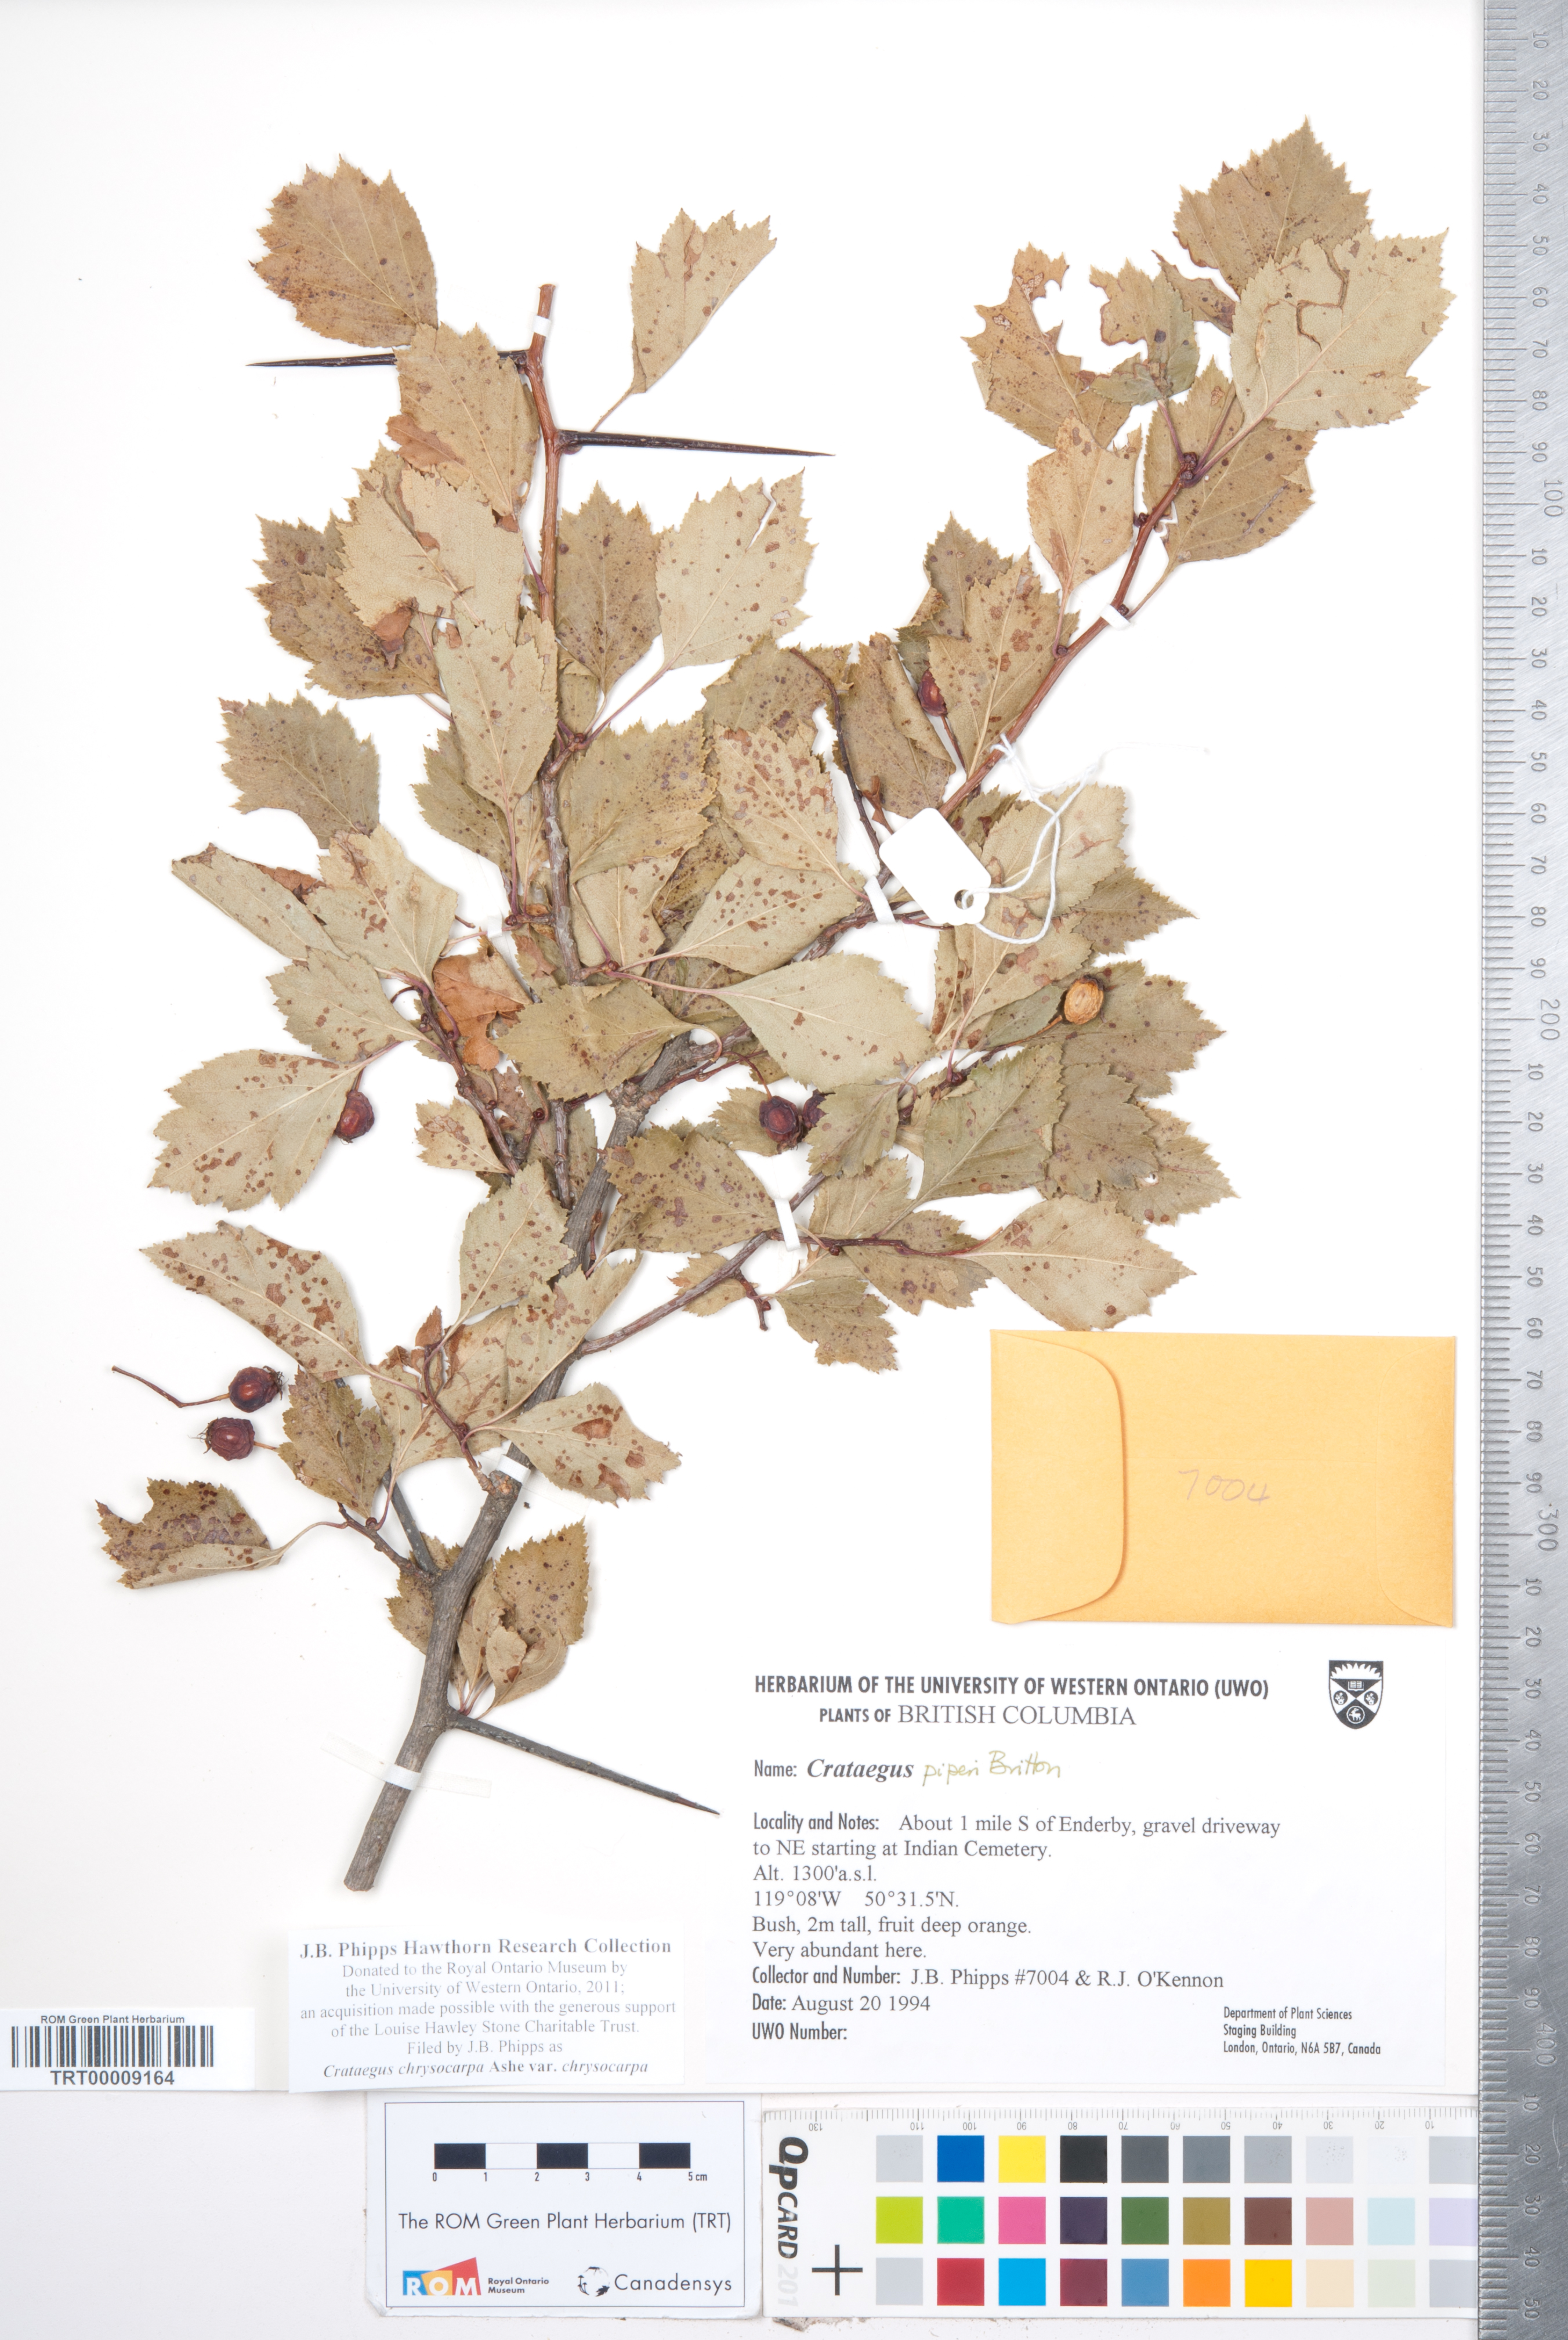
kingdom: Plantae
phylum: Tracheophyta
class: Magnoliopsida
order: Rosales
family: Rosaceae
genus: Crataegus
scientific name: Crataegus chrysocarpa
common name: Fire-berry hawthorn
